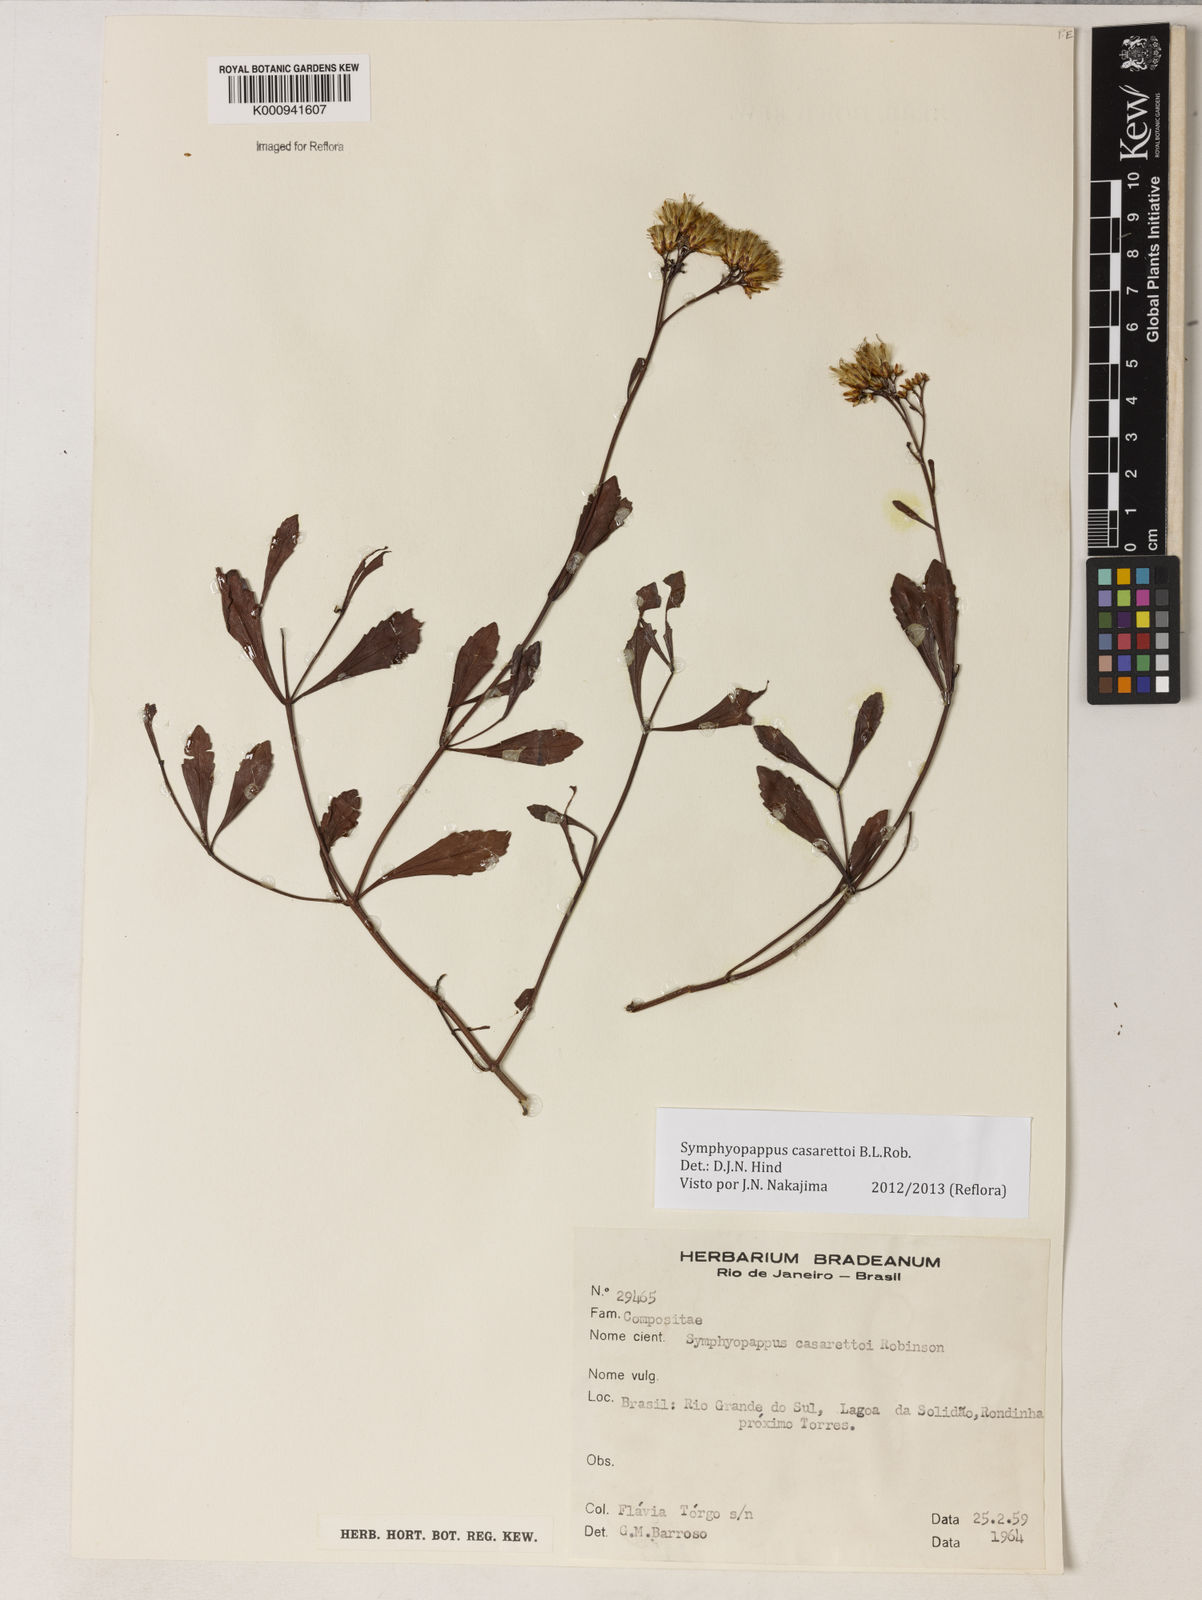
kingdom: Plantae
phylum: Tracheophyta
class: Magnoliopsida
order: Asterales
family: Asteraceae
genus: Symphyopappus
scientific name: Symphyopappus casarettoi
